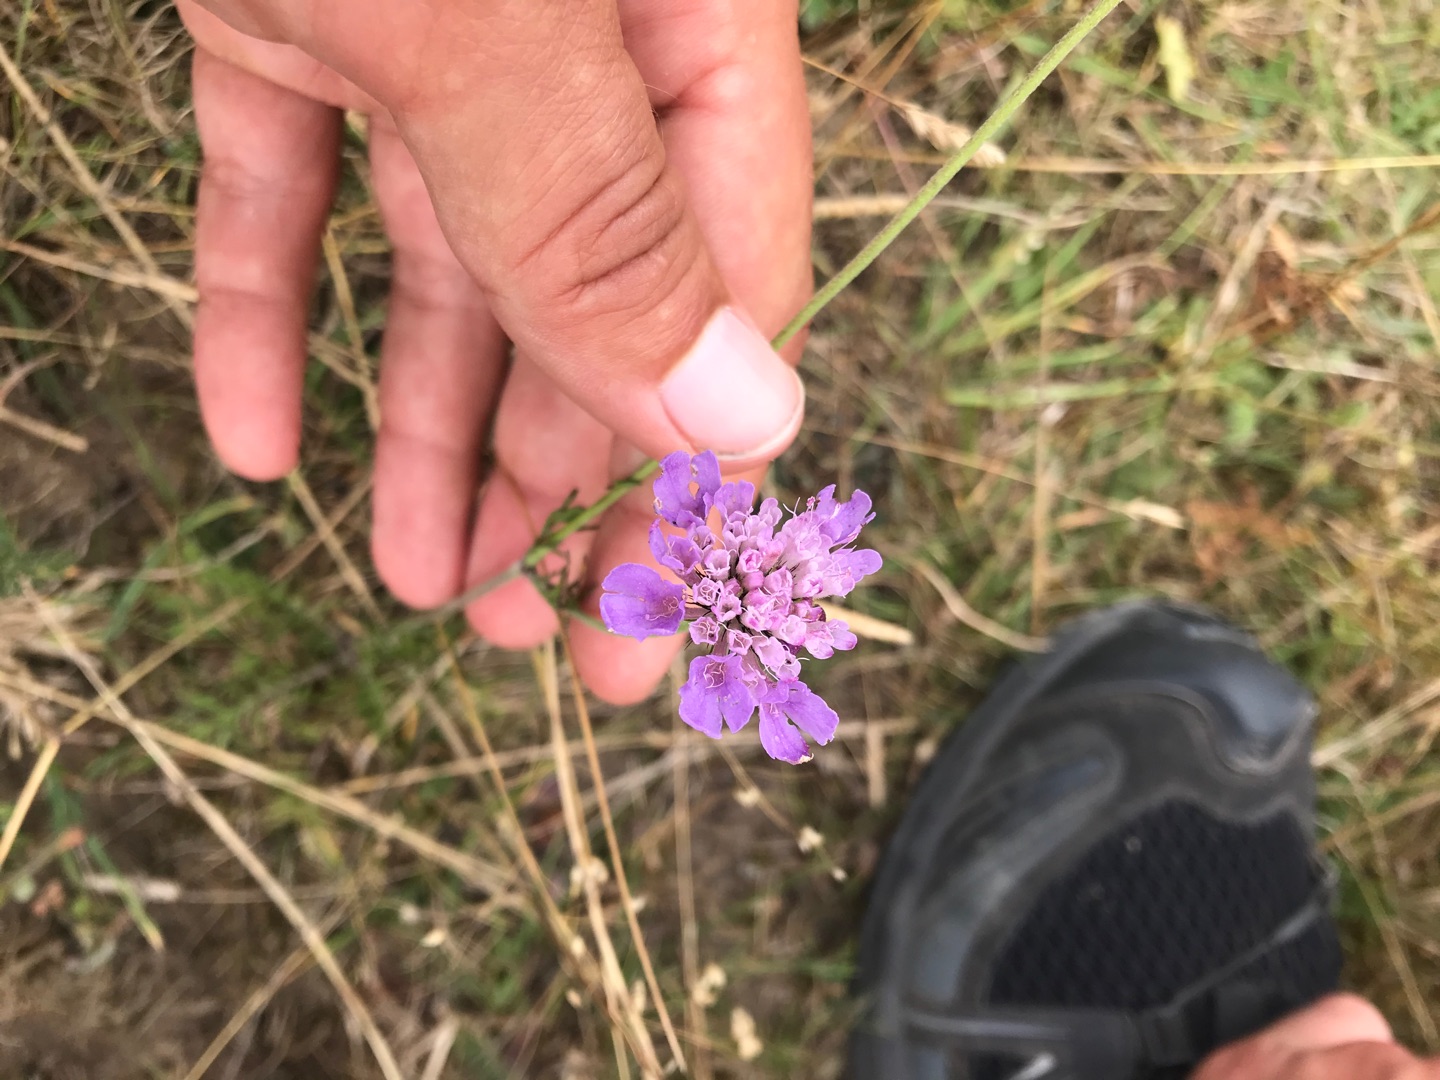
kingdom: Plantae
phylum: Tracheophyta
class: Magnoliopsida
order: Dipsacales
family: Caprifoliaceae
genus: Scabiosa
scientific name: Scabiosa columbaria
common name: Due-skabiose
